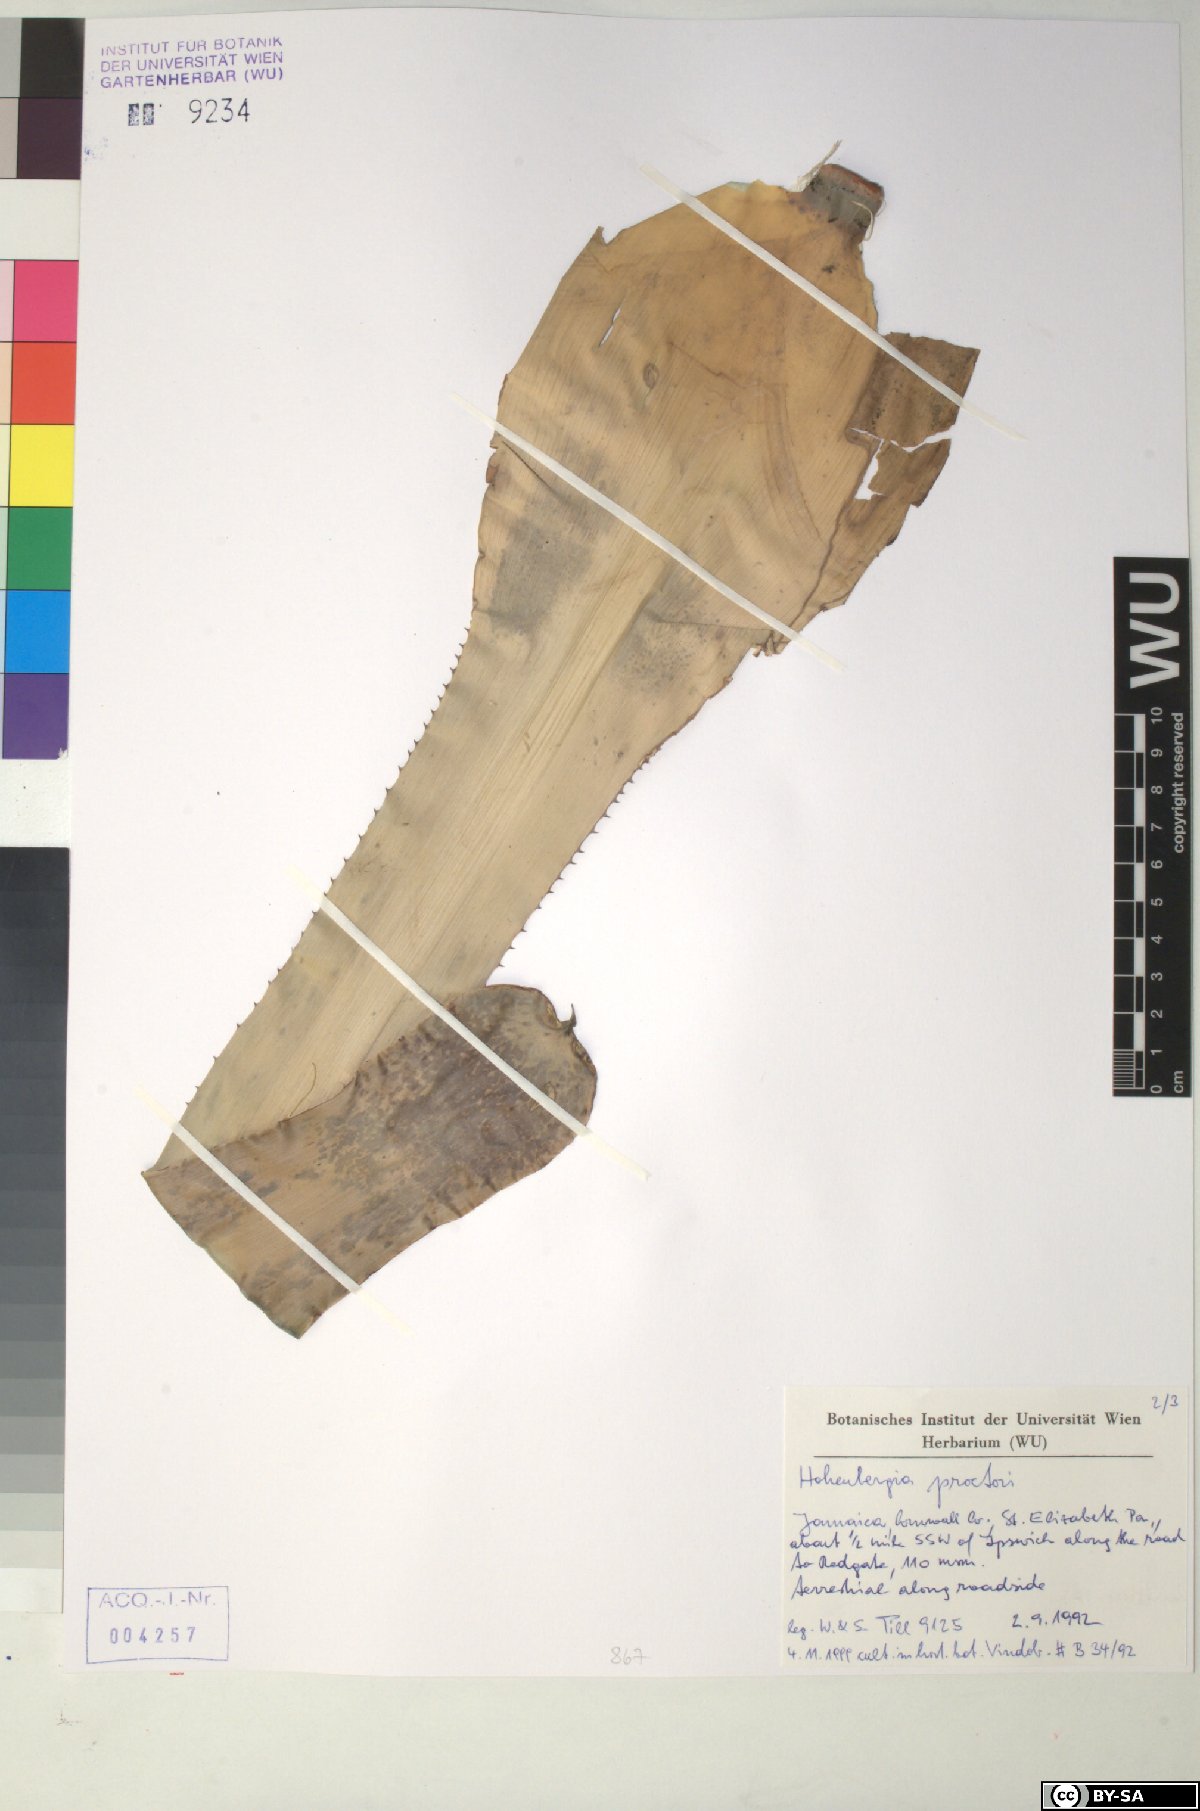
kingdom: Plantae
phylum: Tracheophyta
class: Liliopsida
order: Poales
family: Bromeliaceae
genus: Wittmackia
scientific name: Wittmackia urbaniana
